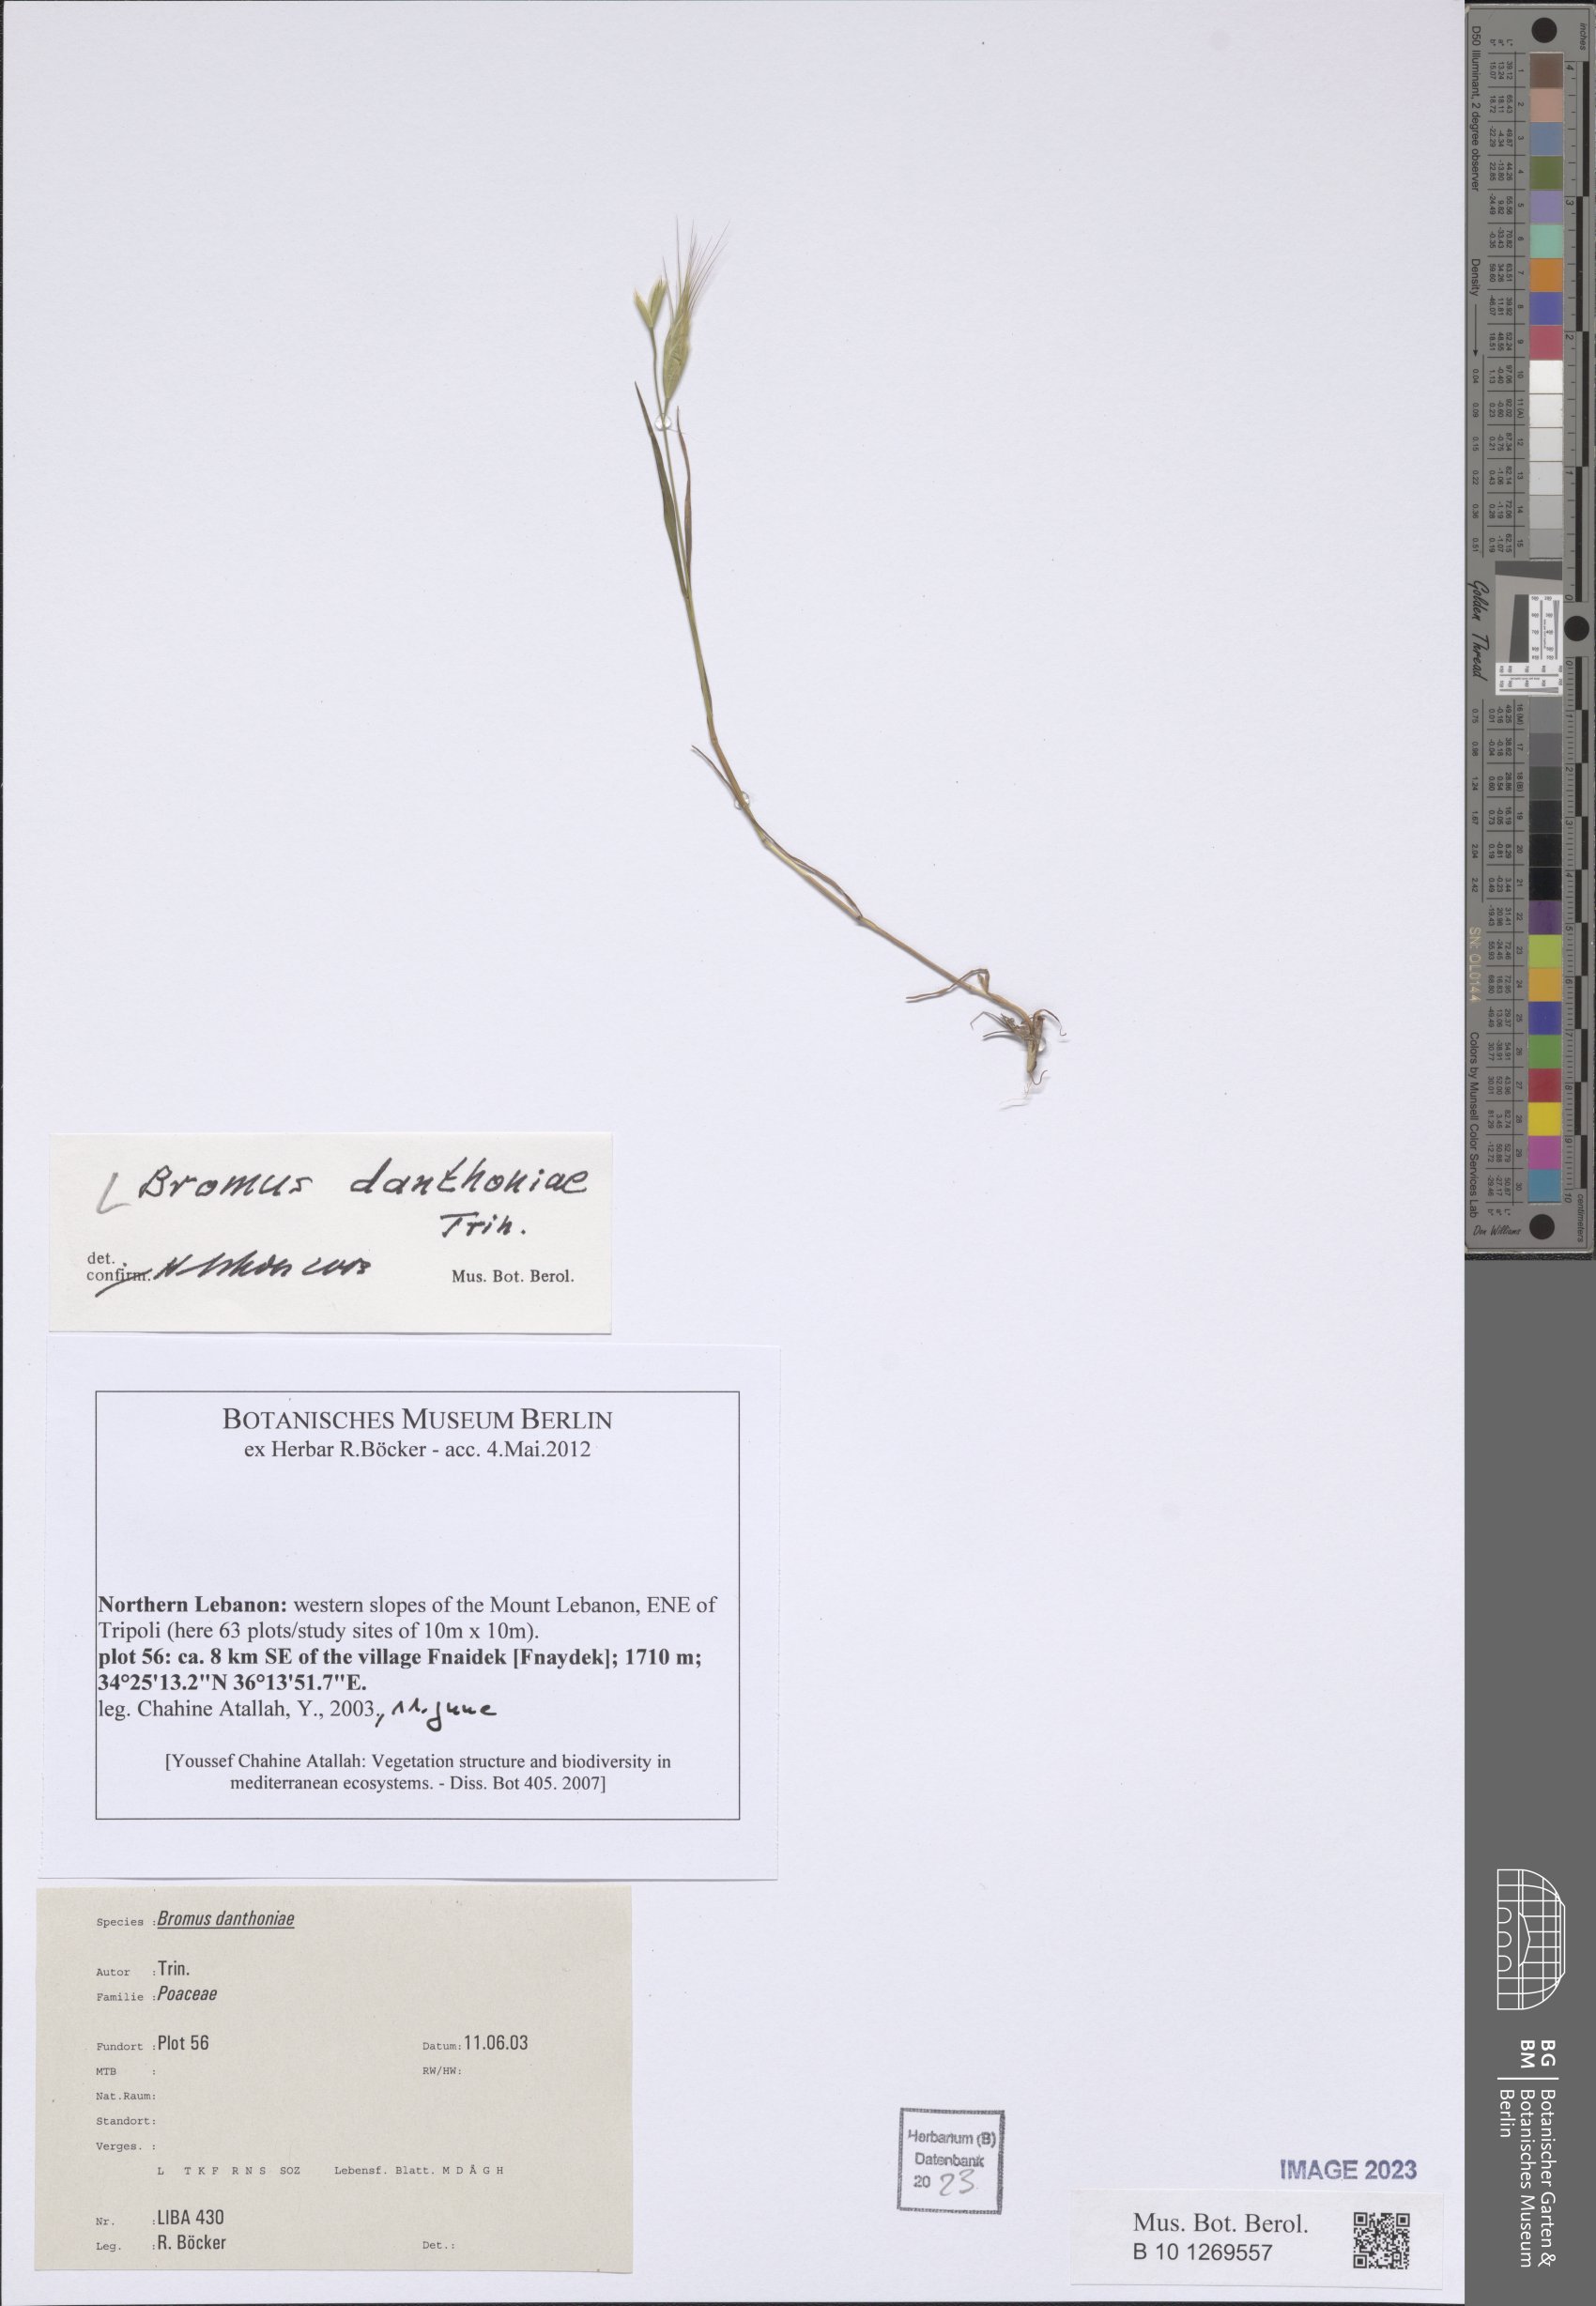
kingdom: Plantae
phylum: Tracheophyta
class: Liliopsida
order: Poales
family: Poaceae
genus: Bromus
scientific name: Bromus danthoniae
